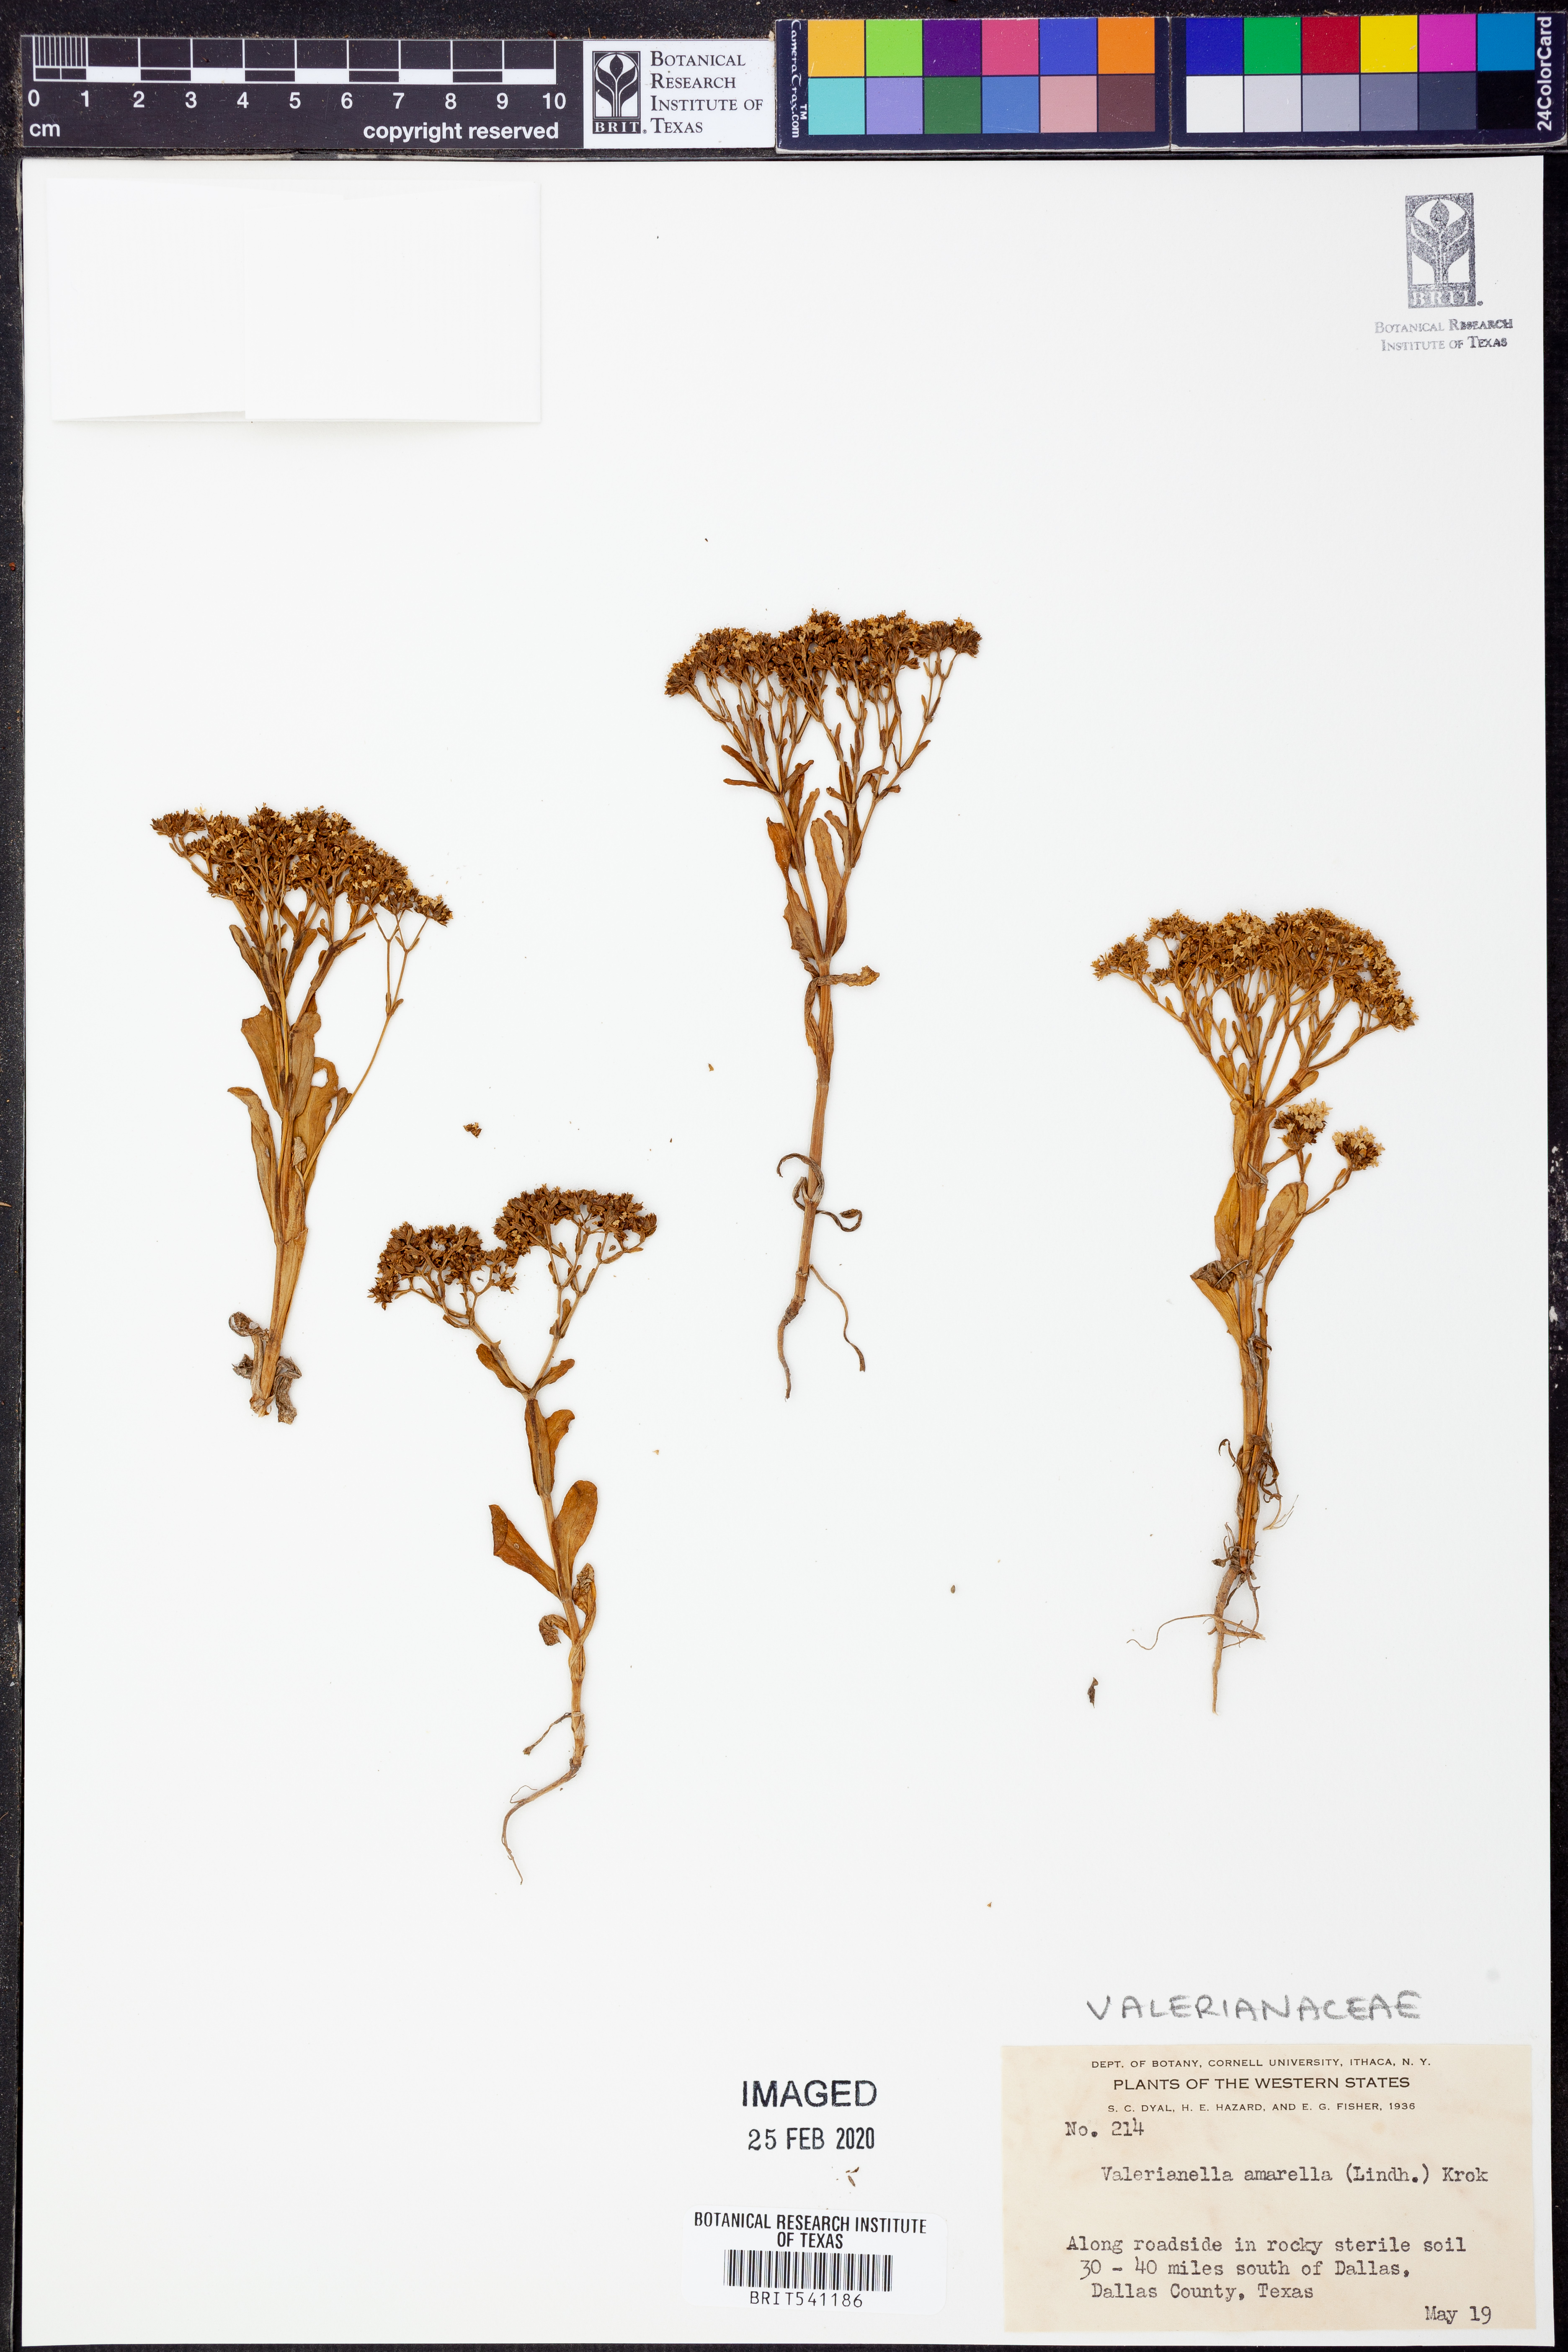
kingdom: Plantae
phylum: Tracheophyta
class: Magnoliopsida
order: Dipsacales
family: Caprifoliaceae
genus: Valerianella
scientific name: Valerianella amarella
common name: Hariy cornsalad
